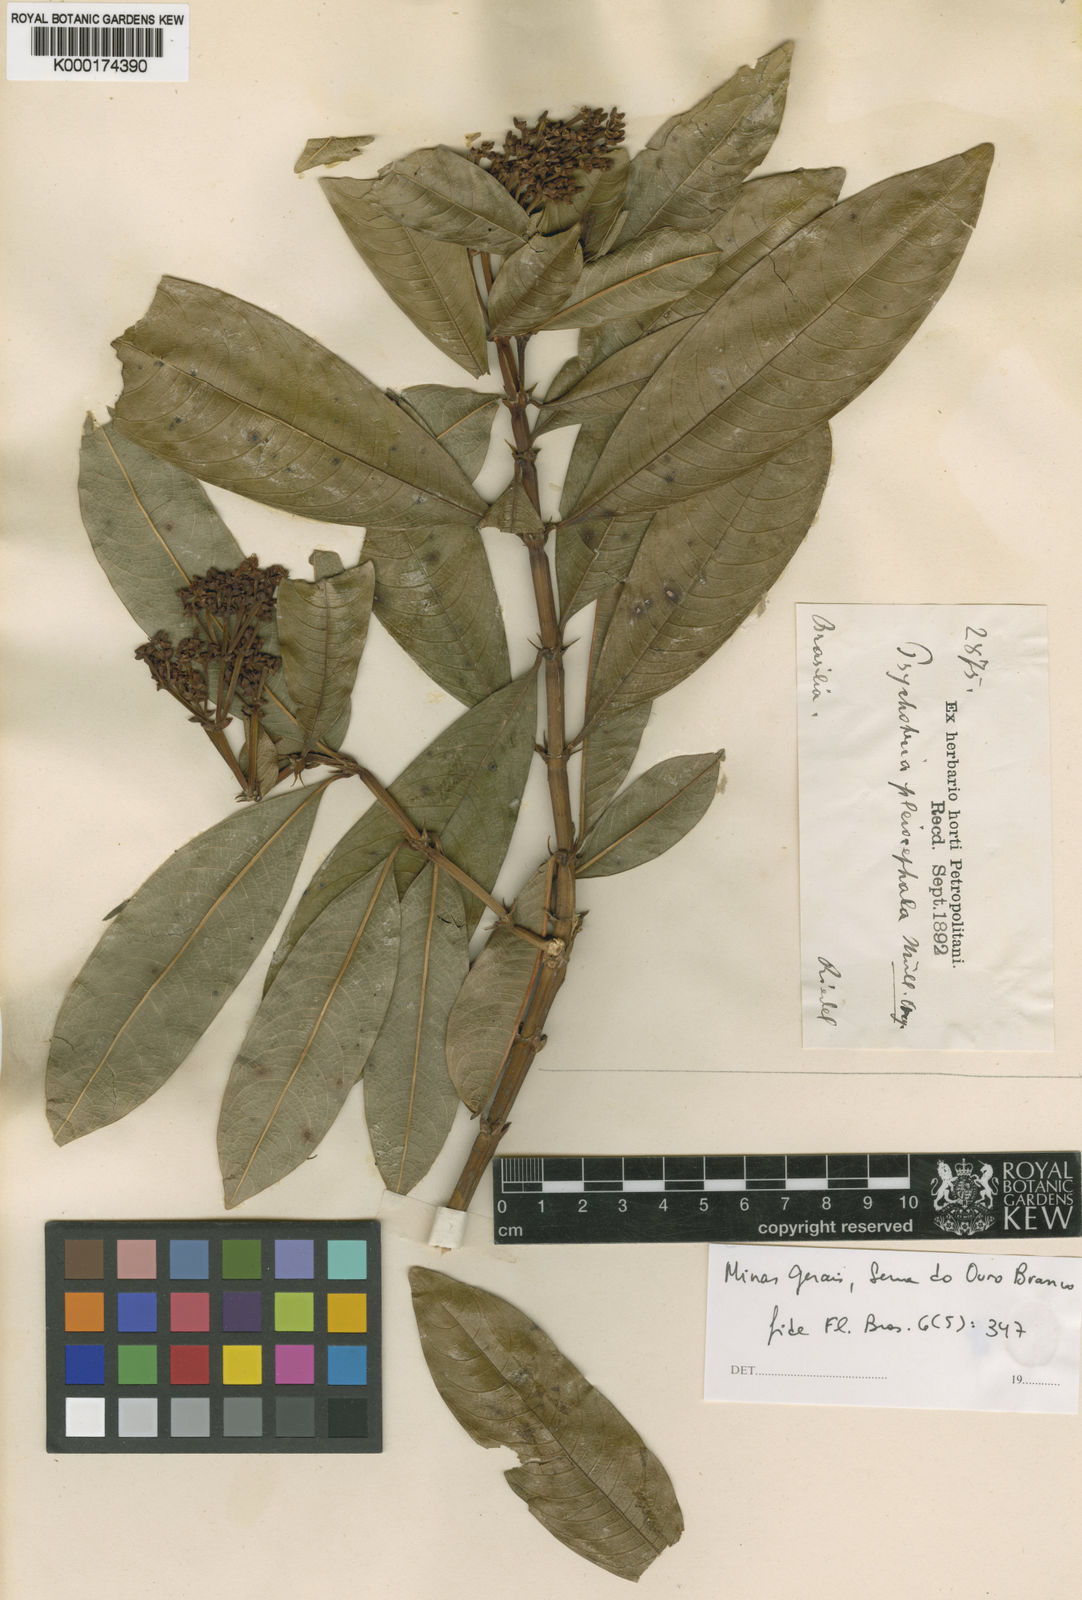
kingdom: Plantae
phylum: Tracheophyta
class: Magnoliopsida
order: Gentianales
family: Rubiaceae
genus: Psychotria
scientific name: Psychotria
